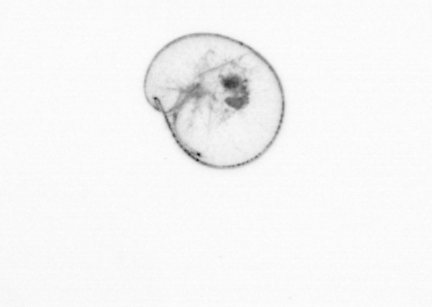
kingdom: Chromista
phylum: Myzozoa
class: Dinophyceae
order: Noctilucales
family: Noctilucaceae
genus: Noctiluca
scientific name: Noctiluca scintillans
